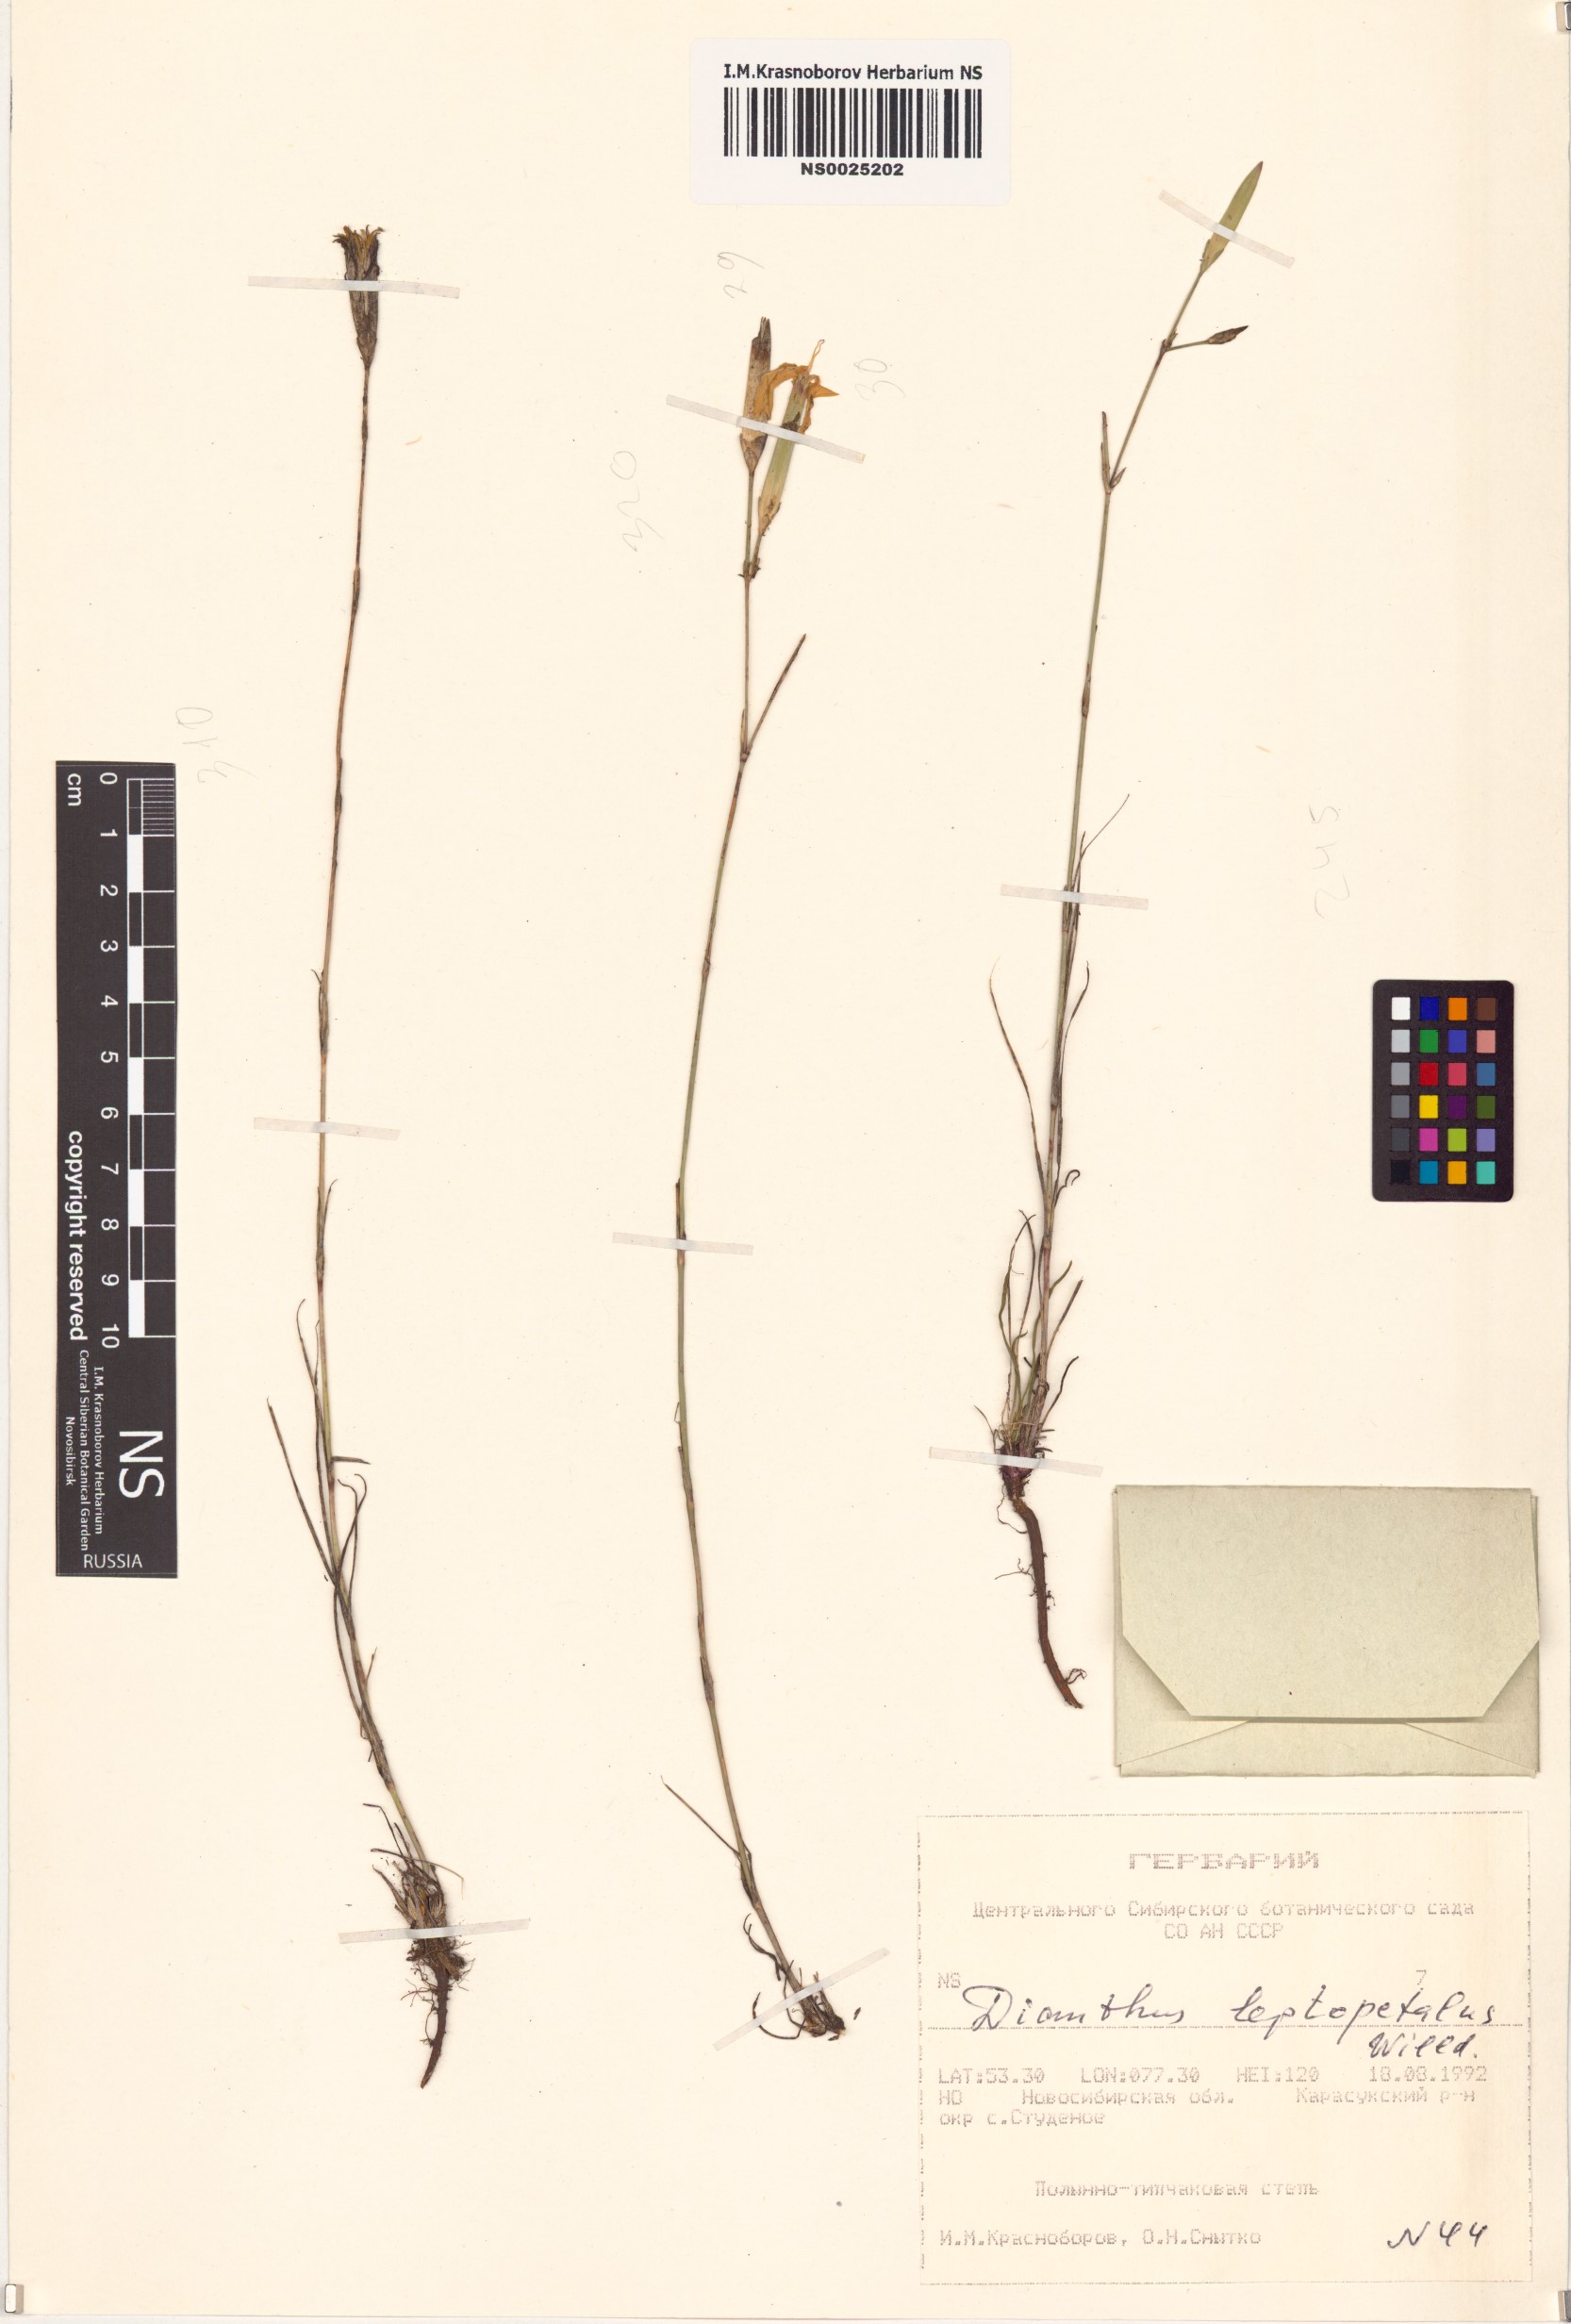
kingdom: Plantae
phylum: Tracheophyta
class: Magnoliopsida
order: Caryophyllales
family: Caryophyllaceae
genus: Dianthus
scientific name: Dianthus leptopetalus
